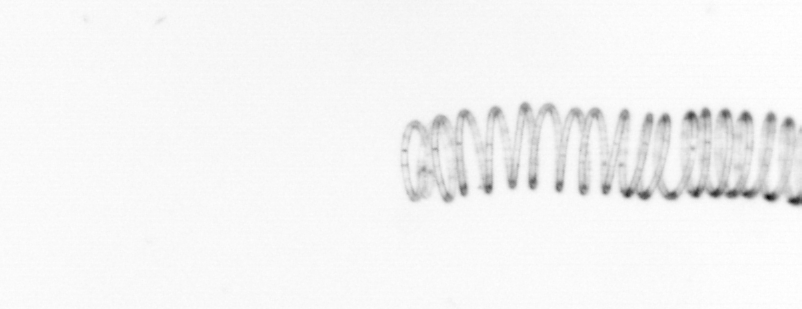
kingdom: Chromista
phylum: Ochrophyta
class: Bacillariophyceae
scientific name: Bacillariophyceae
